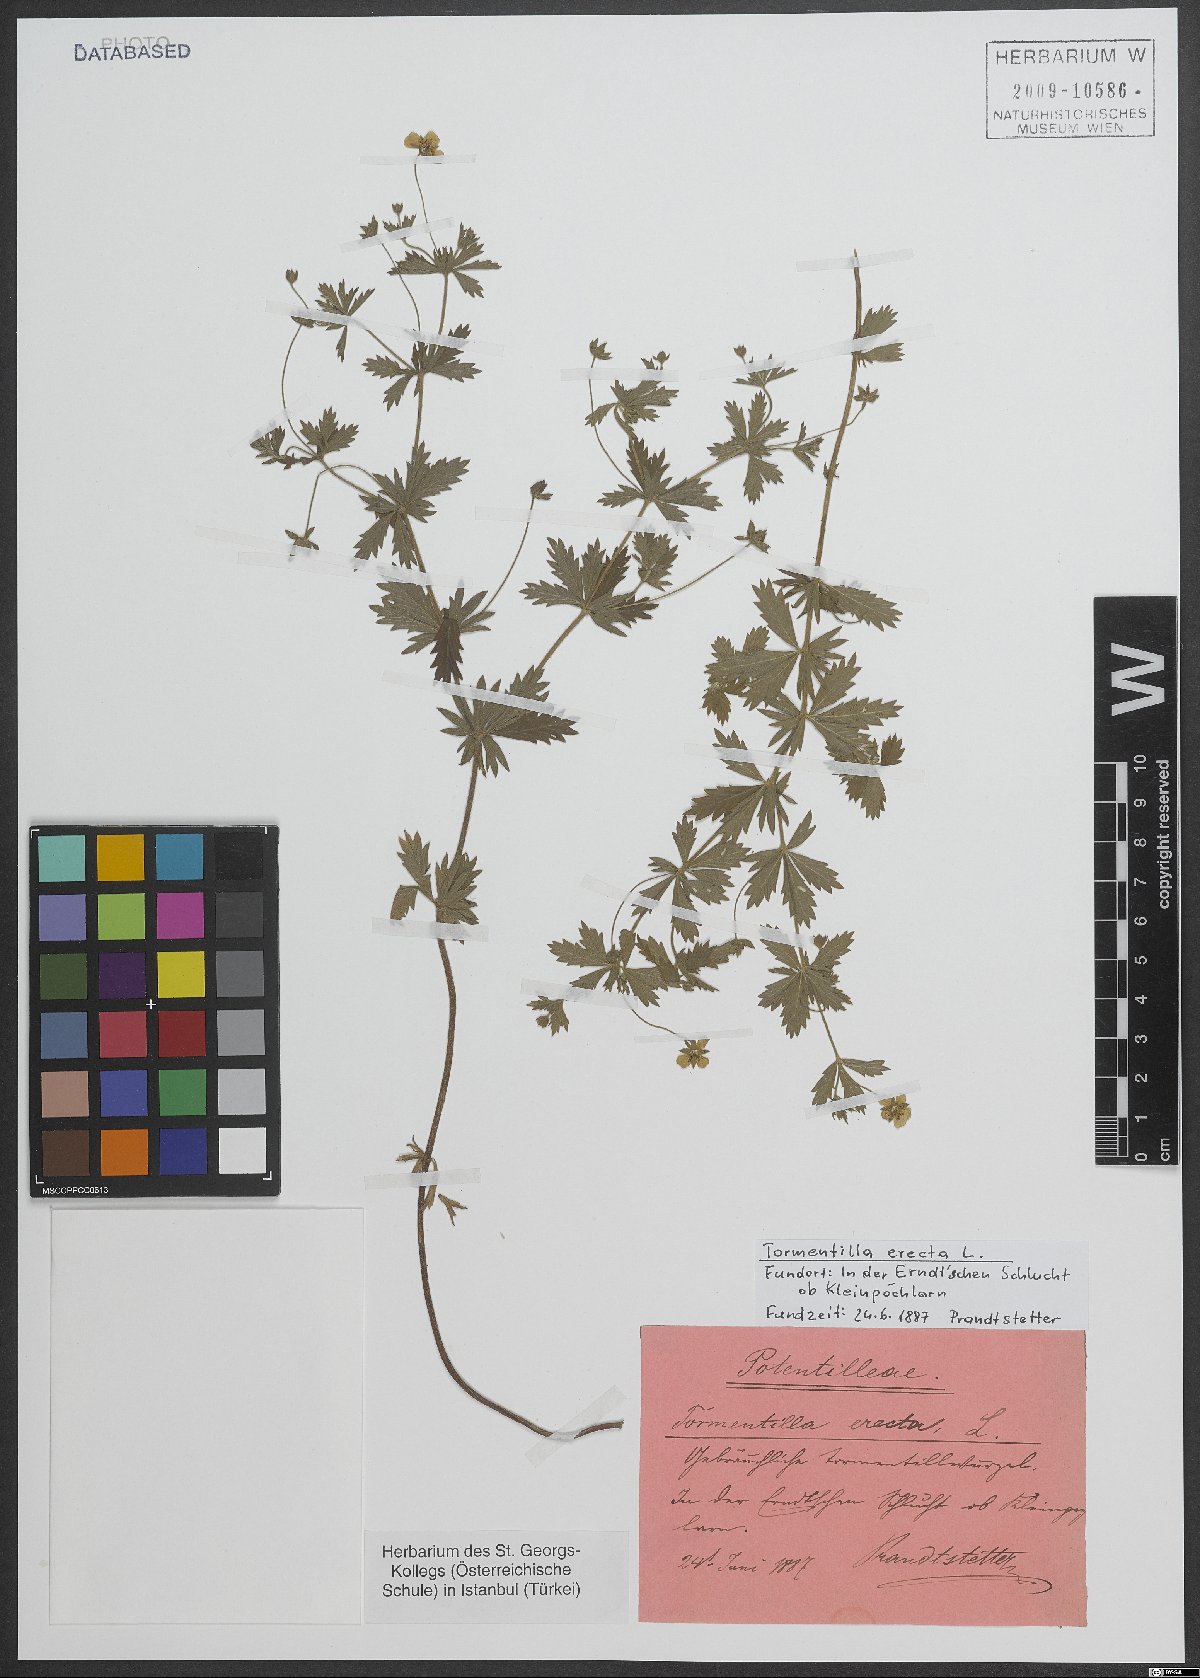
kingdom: Plantae
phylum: Tracheophyta
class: Magnoliopsida
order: Rosales
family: Rosaceae
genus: Potentilla
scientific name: Potentilla erecta
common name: Tormentil
